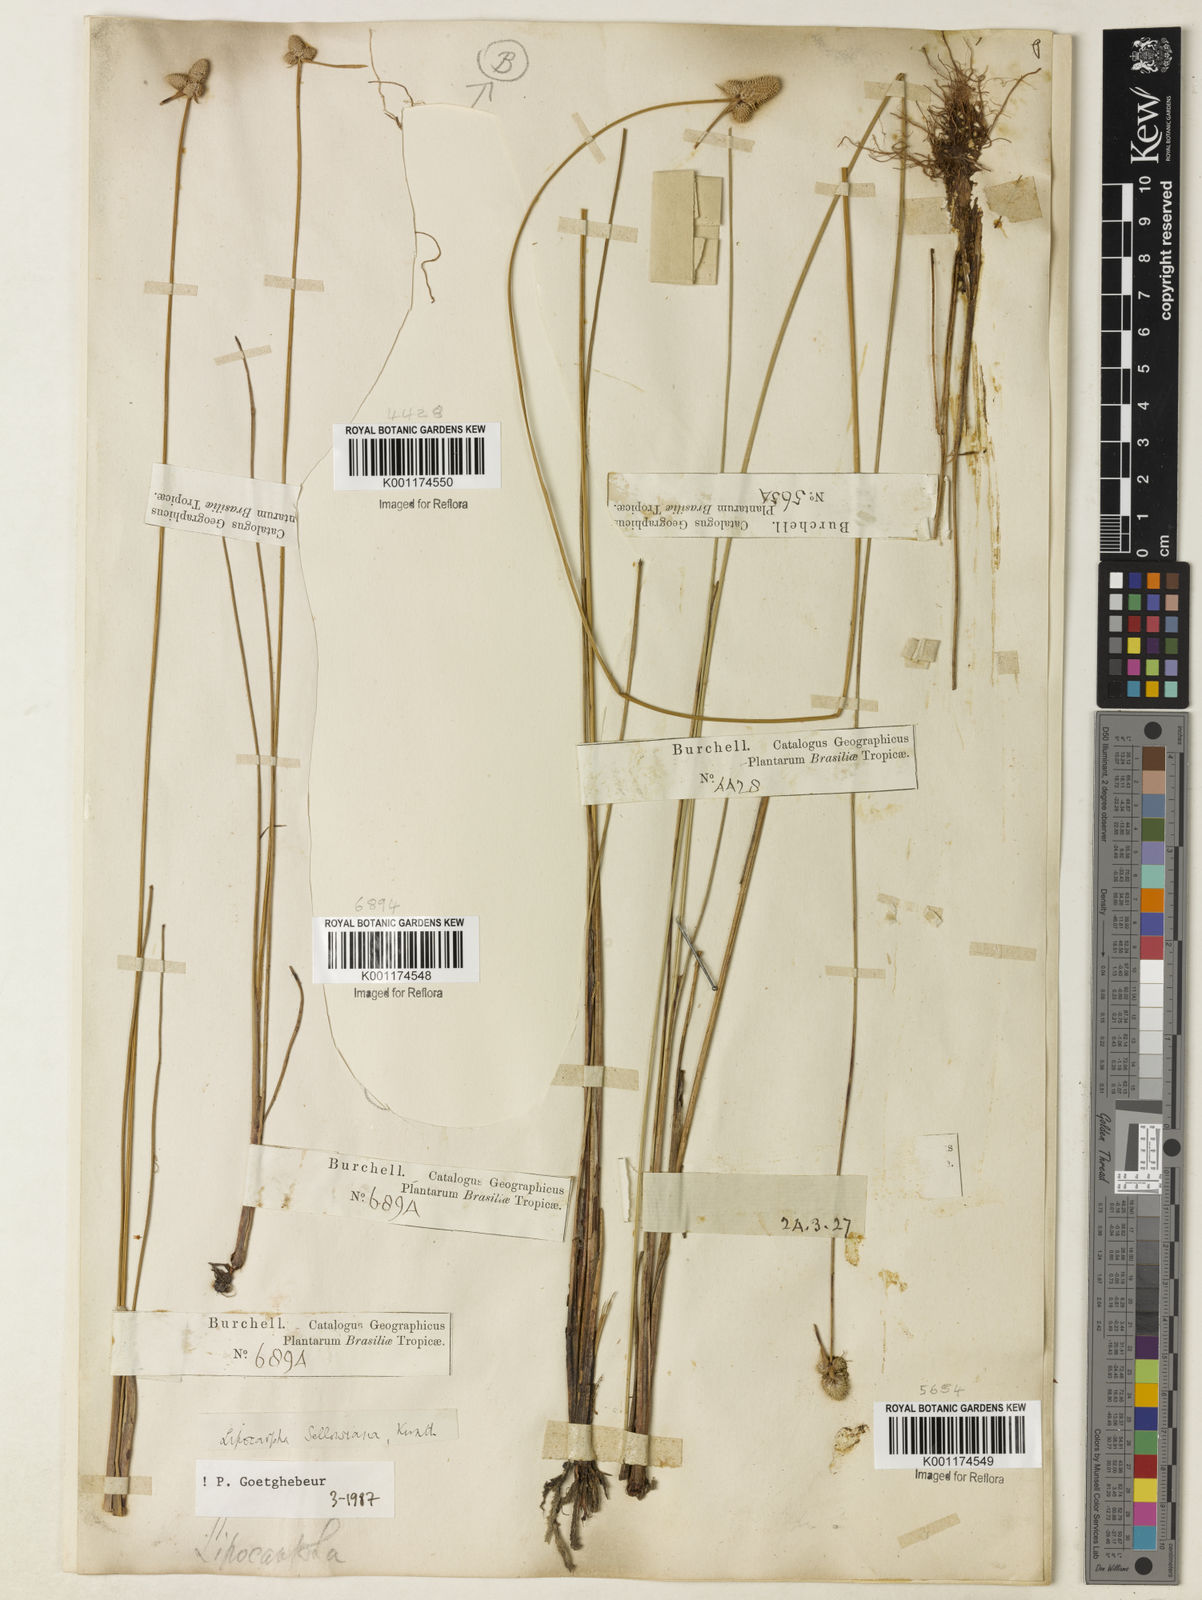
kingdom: Plantae
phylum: Tracheophyta
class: Liliopsida
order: Poales
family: Cyperaceae
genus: Cyperus
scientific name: Cyperus lanceolatus
